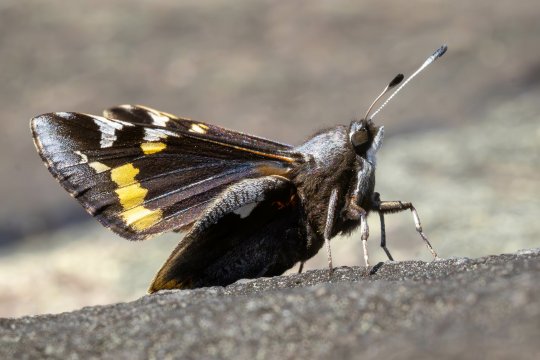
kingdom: Animalia
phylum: Arthropoda
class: Insecta
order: Lepidoptera
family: Hesperiidae
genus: Megathymus
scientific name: Megathymus yuccae
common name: Yucca Giant-Skipper
